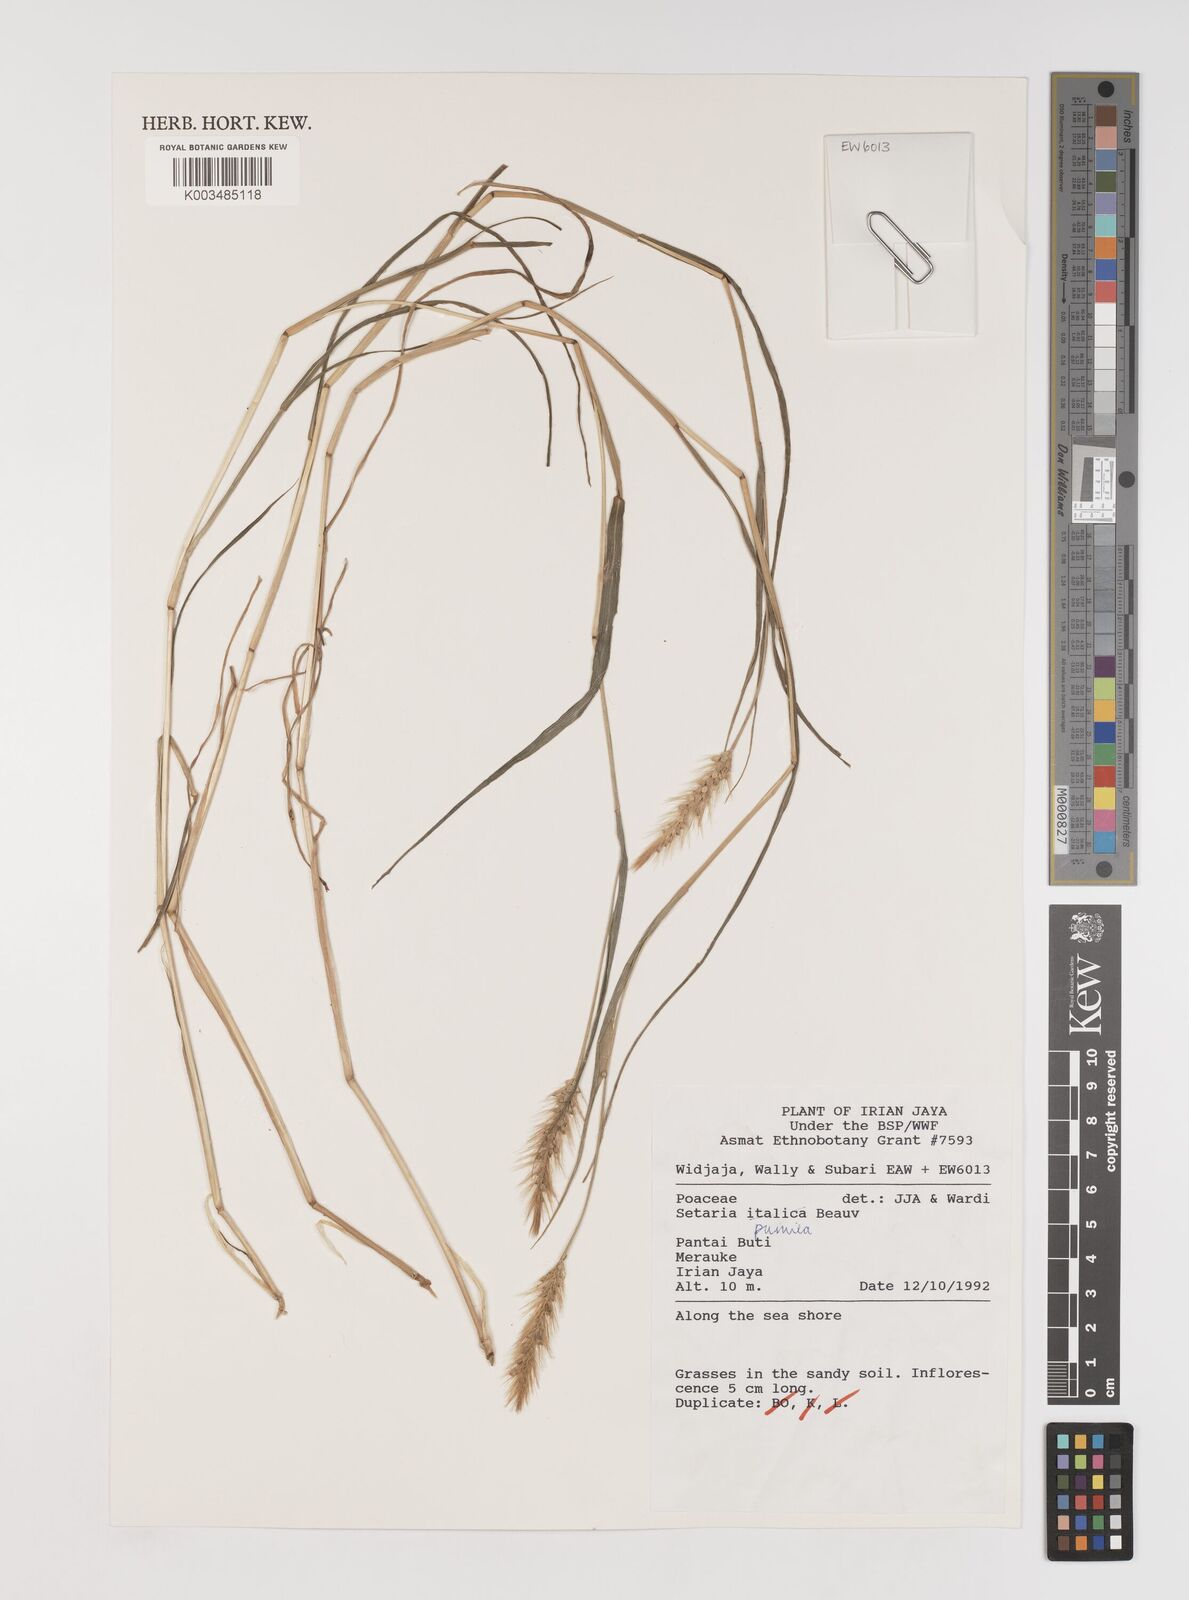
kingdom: Plantae
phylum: Tracheophyta
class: Liliopsida
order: Poales
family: Poaceae
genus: Setaria
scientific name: Setaria pumila
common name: Yellow bristle-grass
